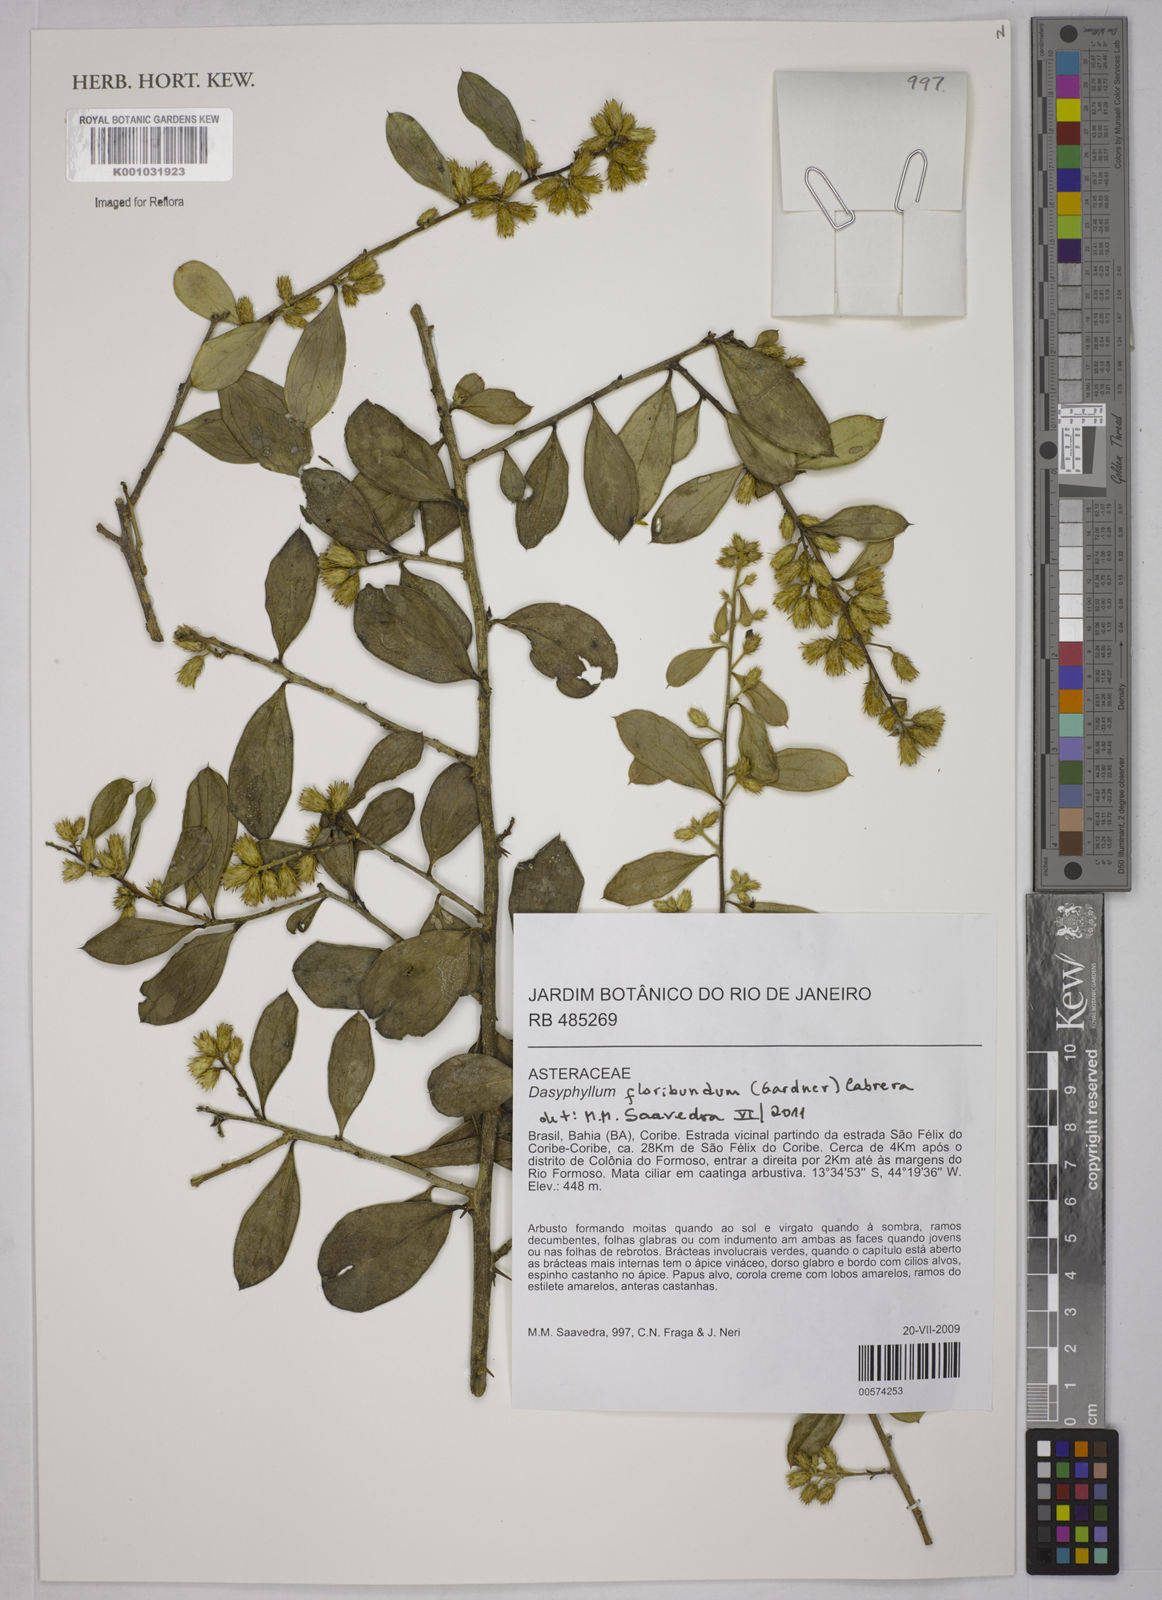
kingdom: Plantae
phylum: Tracheophyta
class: Magnoliopsida
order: Asterales
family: Asteraceae
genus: Dasyphyllum
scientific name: Dasyphyllum floribundum
